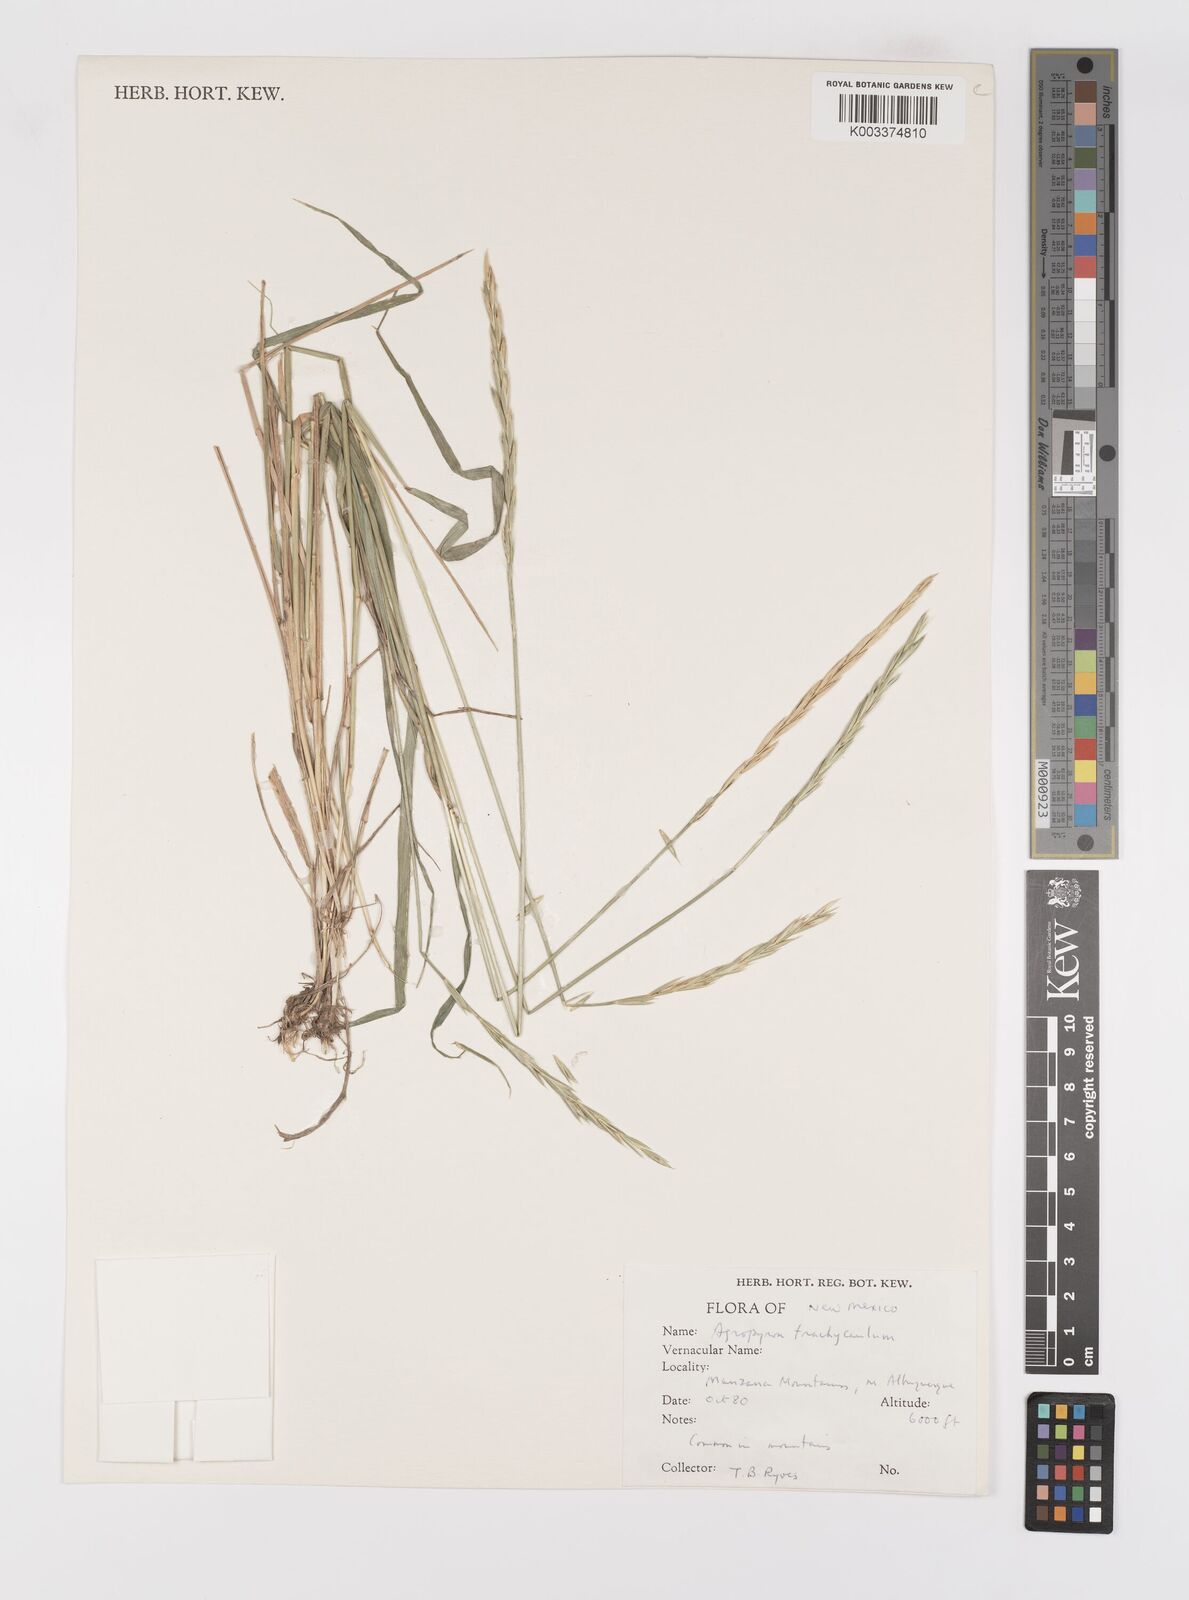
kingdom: Plantae
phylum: Tracheophyta
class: Liliopsida
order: Poales
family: Poaceae
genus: Elymus
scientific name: Elymus violaceus
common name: Arctic wheatgrass
